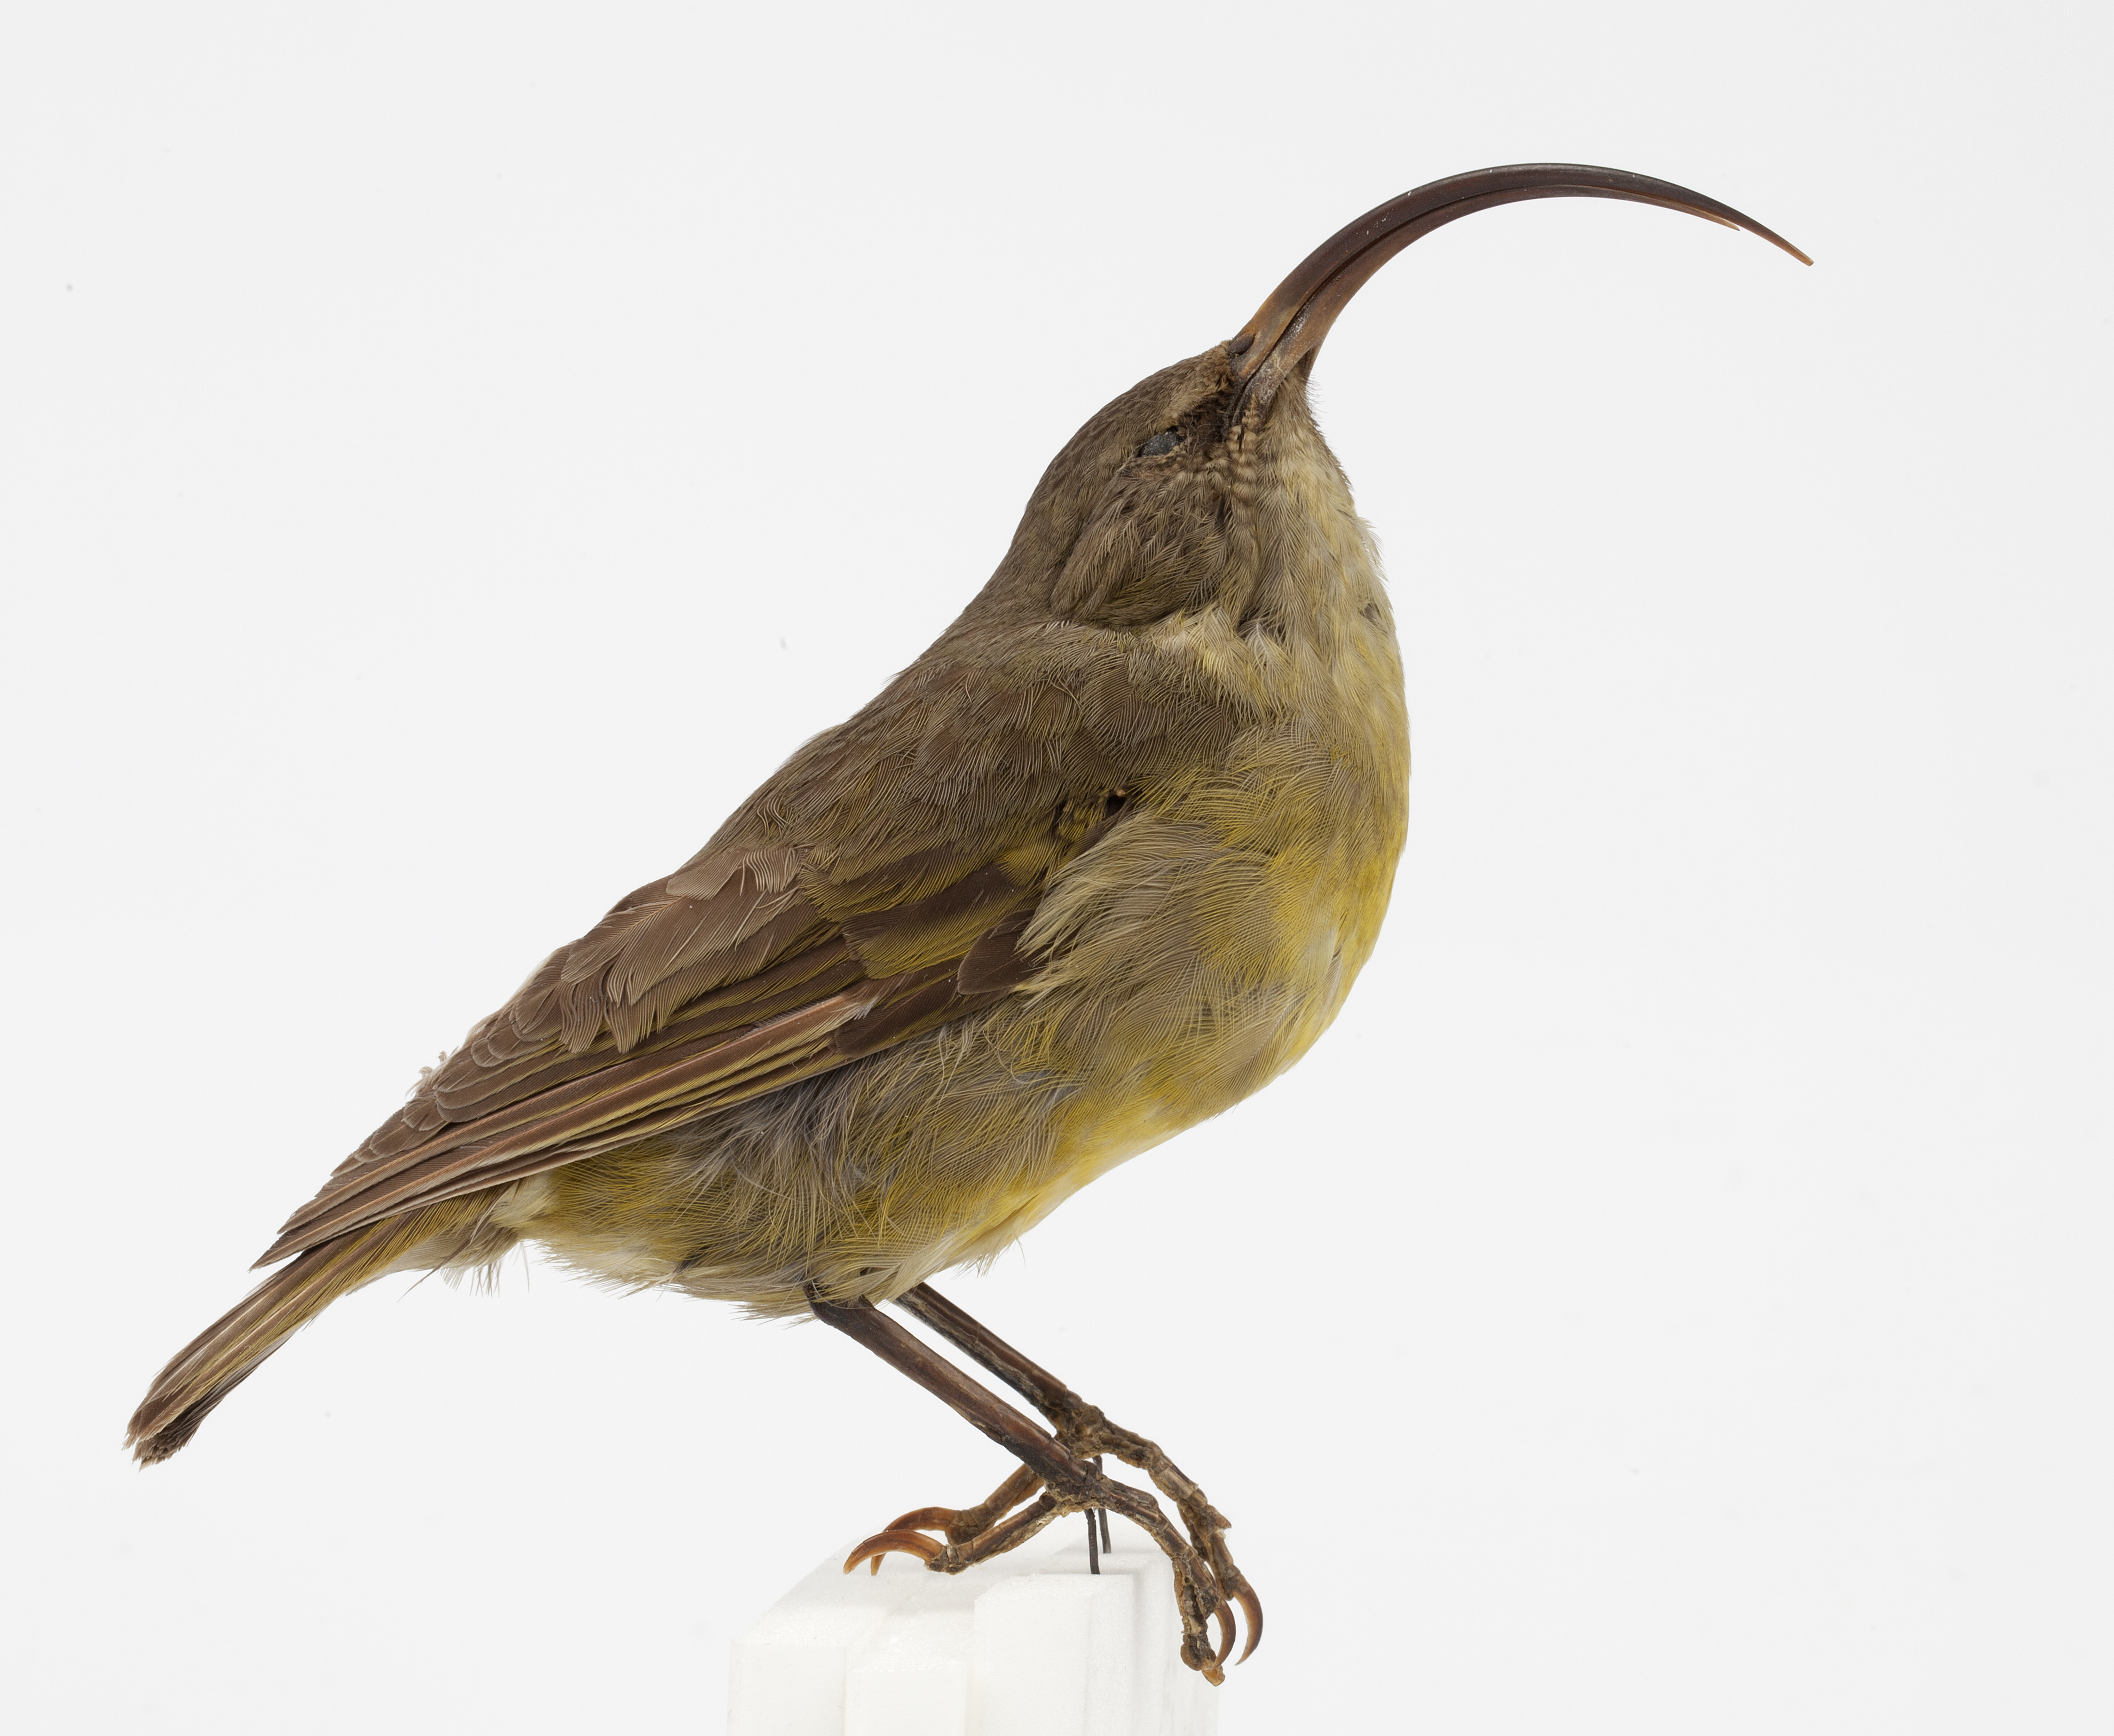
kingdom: Animalia
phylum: Chordata
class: Aves
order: Passeriformes
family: Fringillidae
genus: Akialoa
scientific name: Akialoa obscura
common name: Lesser akialoa
